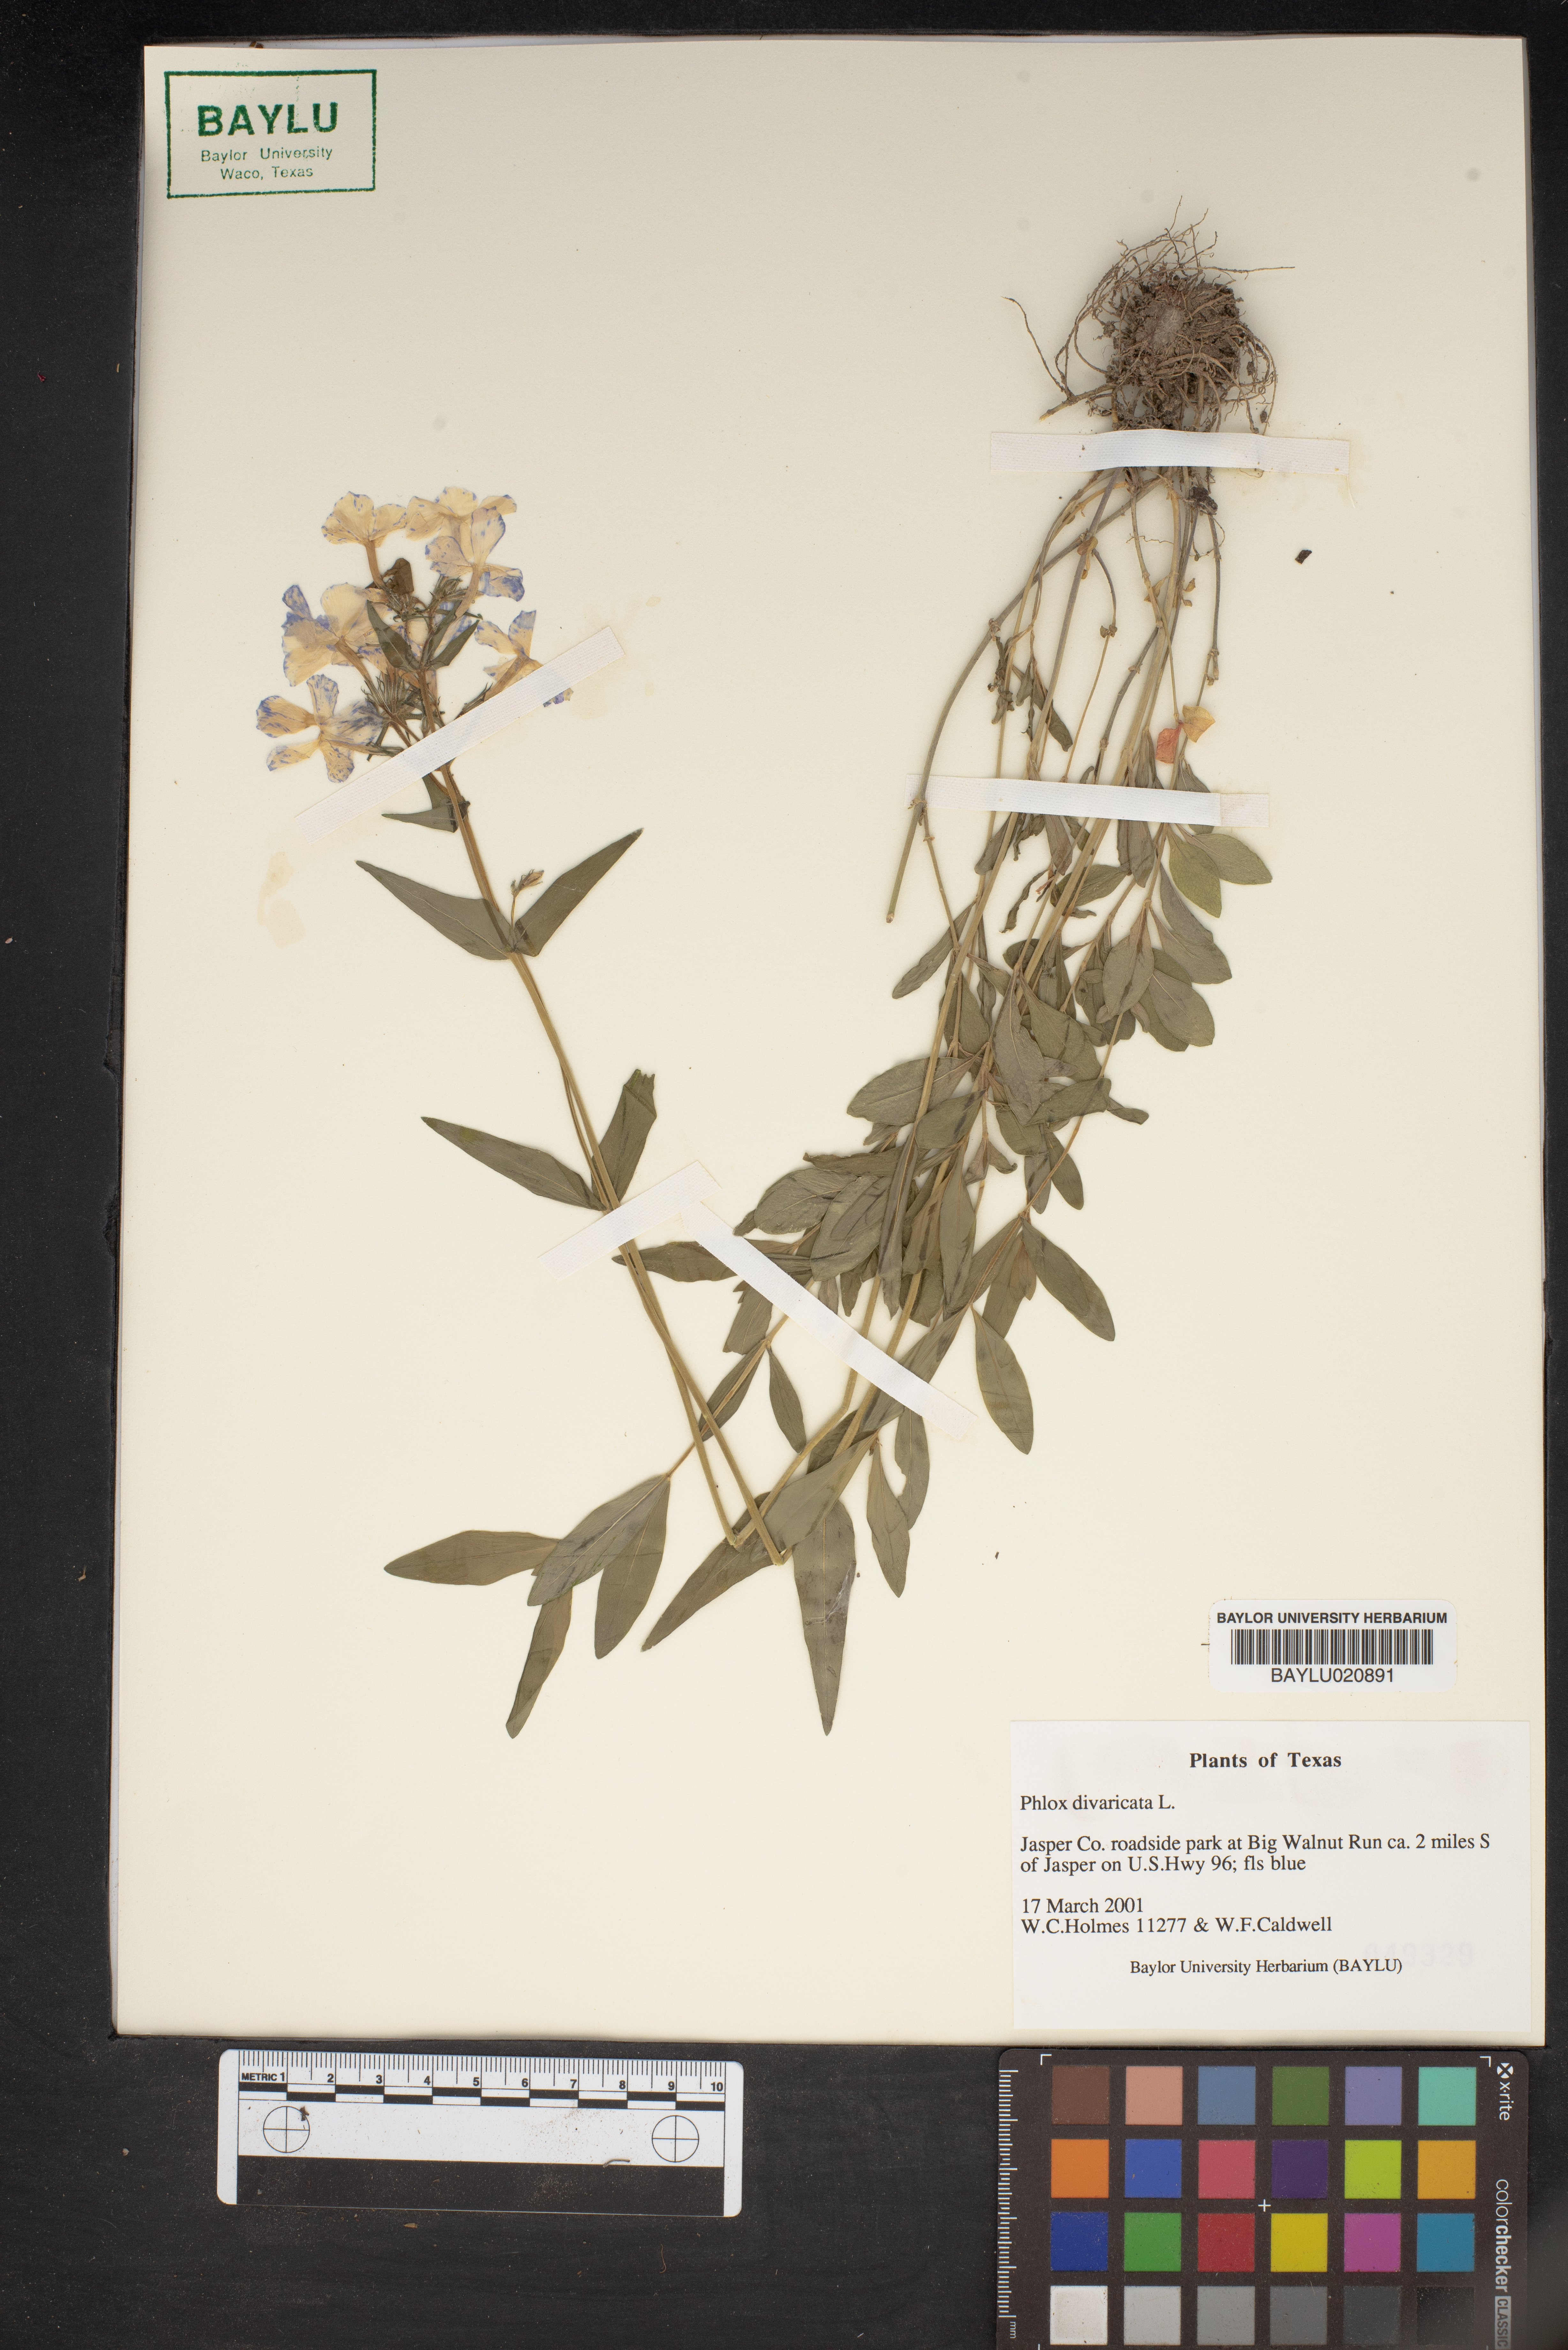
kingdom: Plantae
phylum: Tracheophyta
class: Magnoliopsida
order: Ericales
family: Polemoniaceae
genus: Phlox
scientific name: Phlox divaricata
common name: Blue phlox
